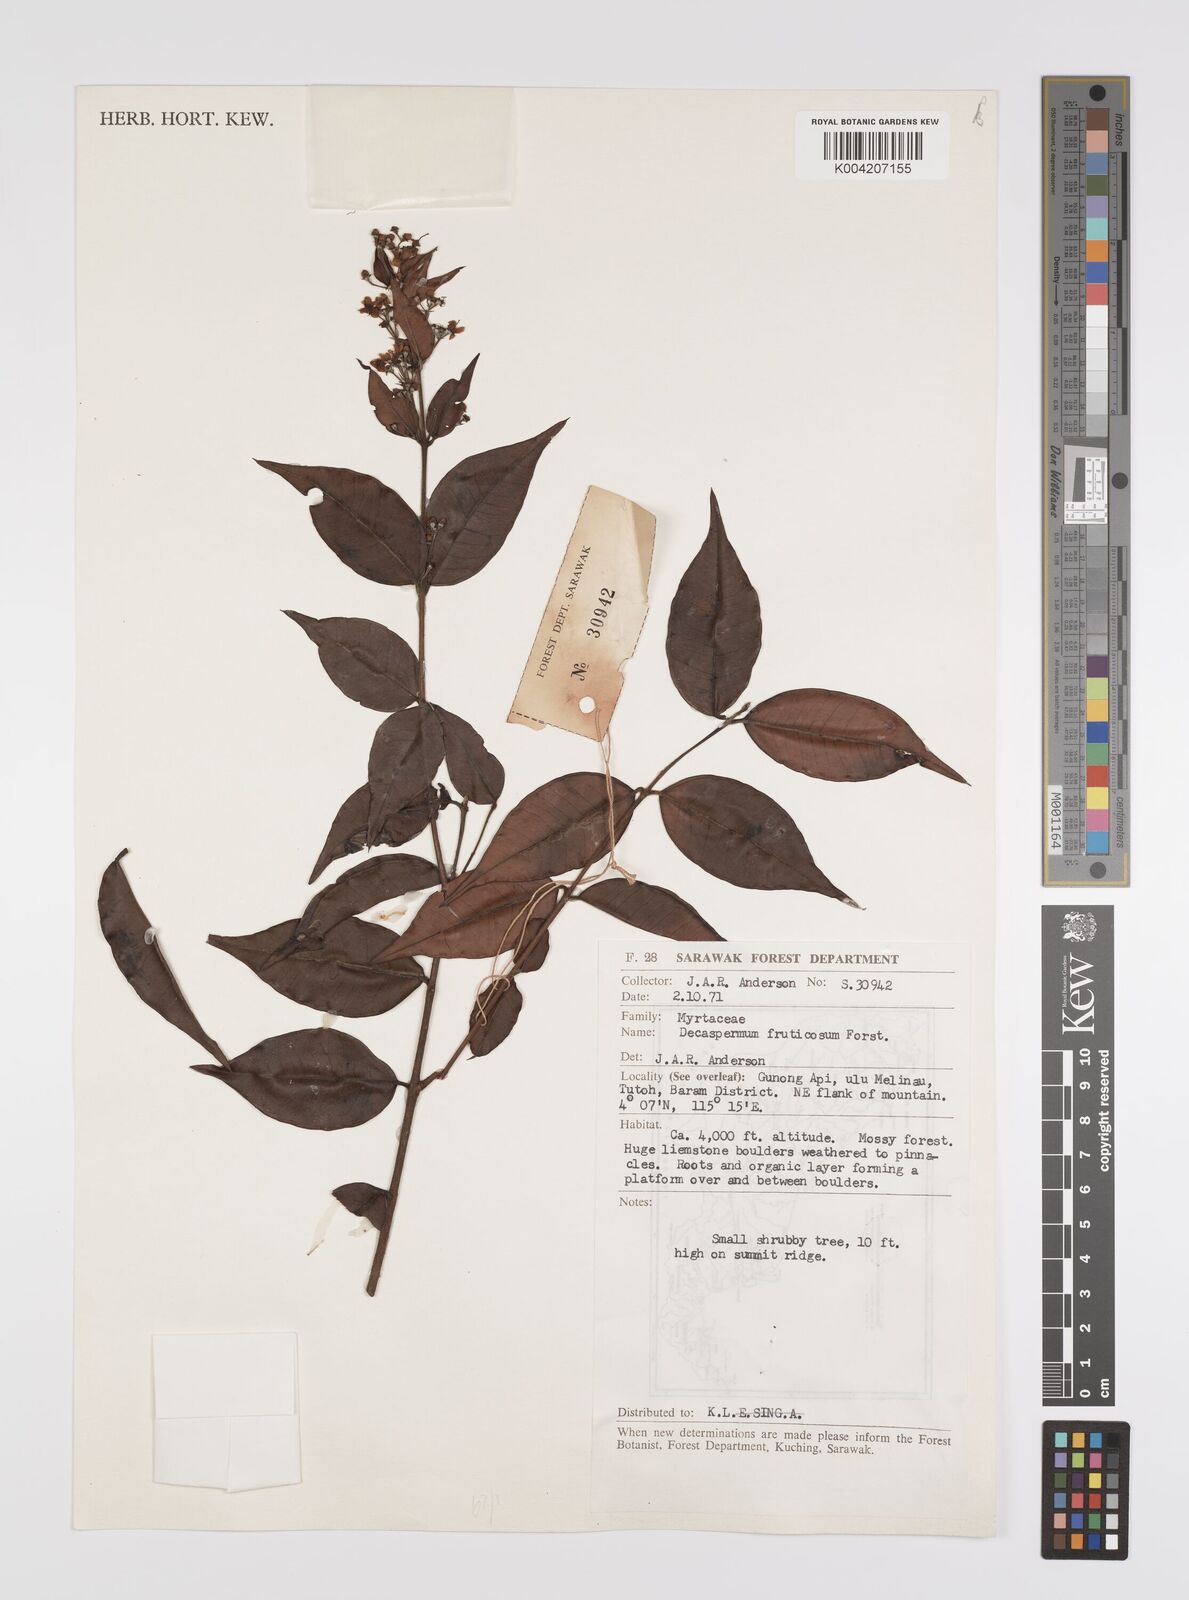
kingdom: Plantae
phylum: Tracheophyta
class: Magnoliopsida
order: Myrtales
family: Myrtaceae
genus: Decaspermum
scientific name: Decaspermum fruticosum
